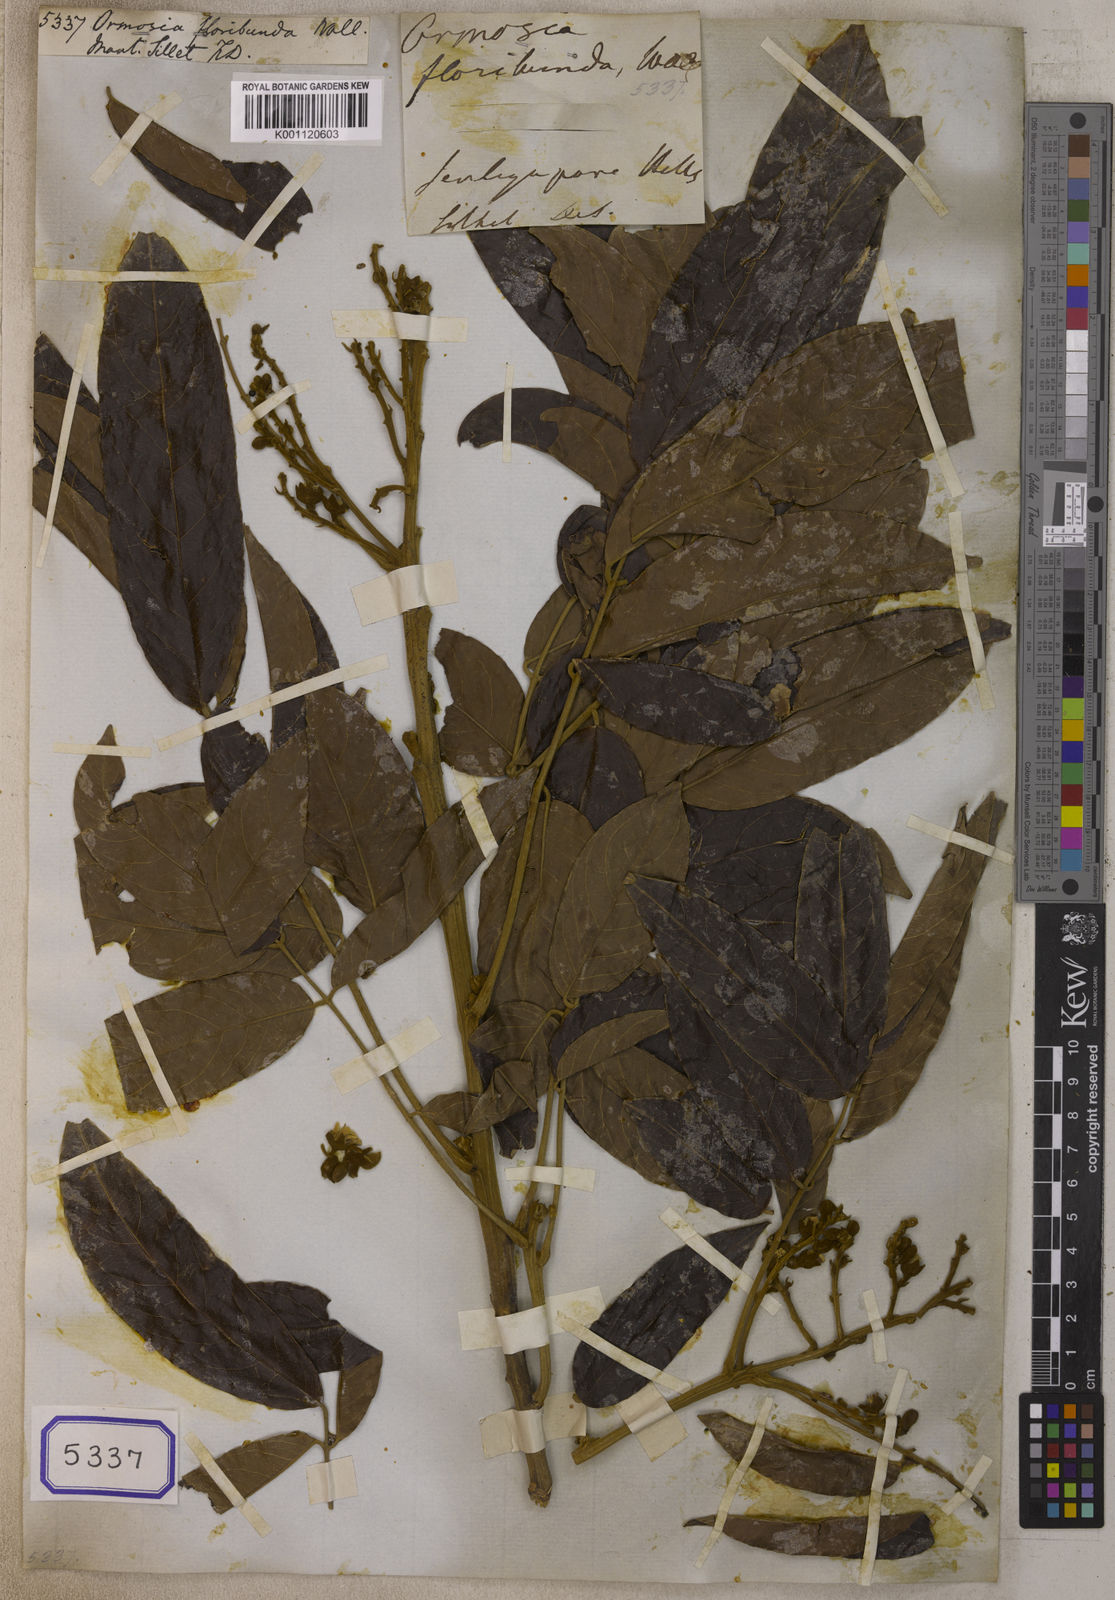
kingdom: Plantae
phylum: Tracheophyta
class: Magnoliopsida
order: Fabales
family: Fabaceae
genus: Ormosia
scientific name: Ormosia robusta
